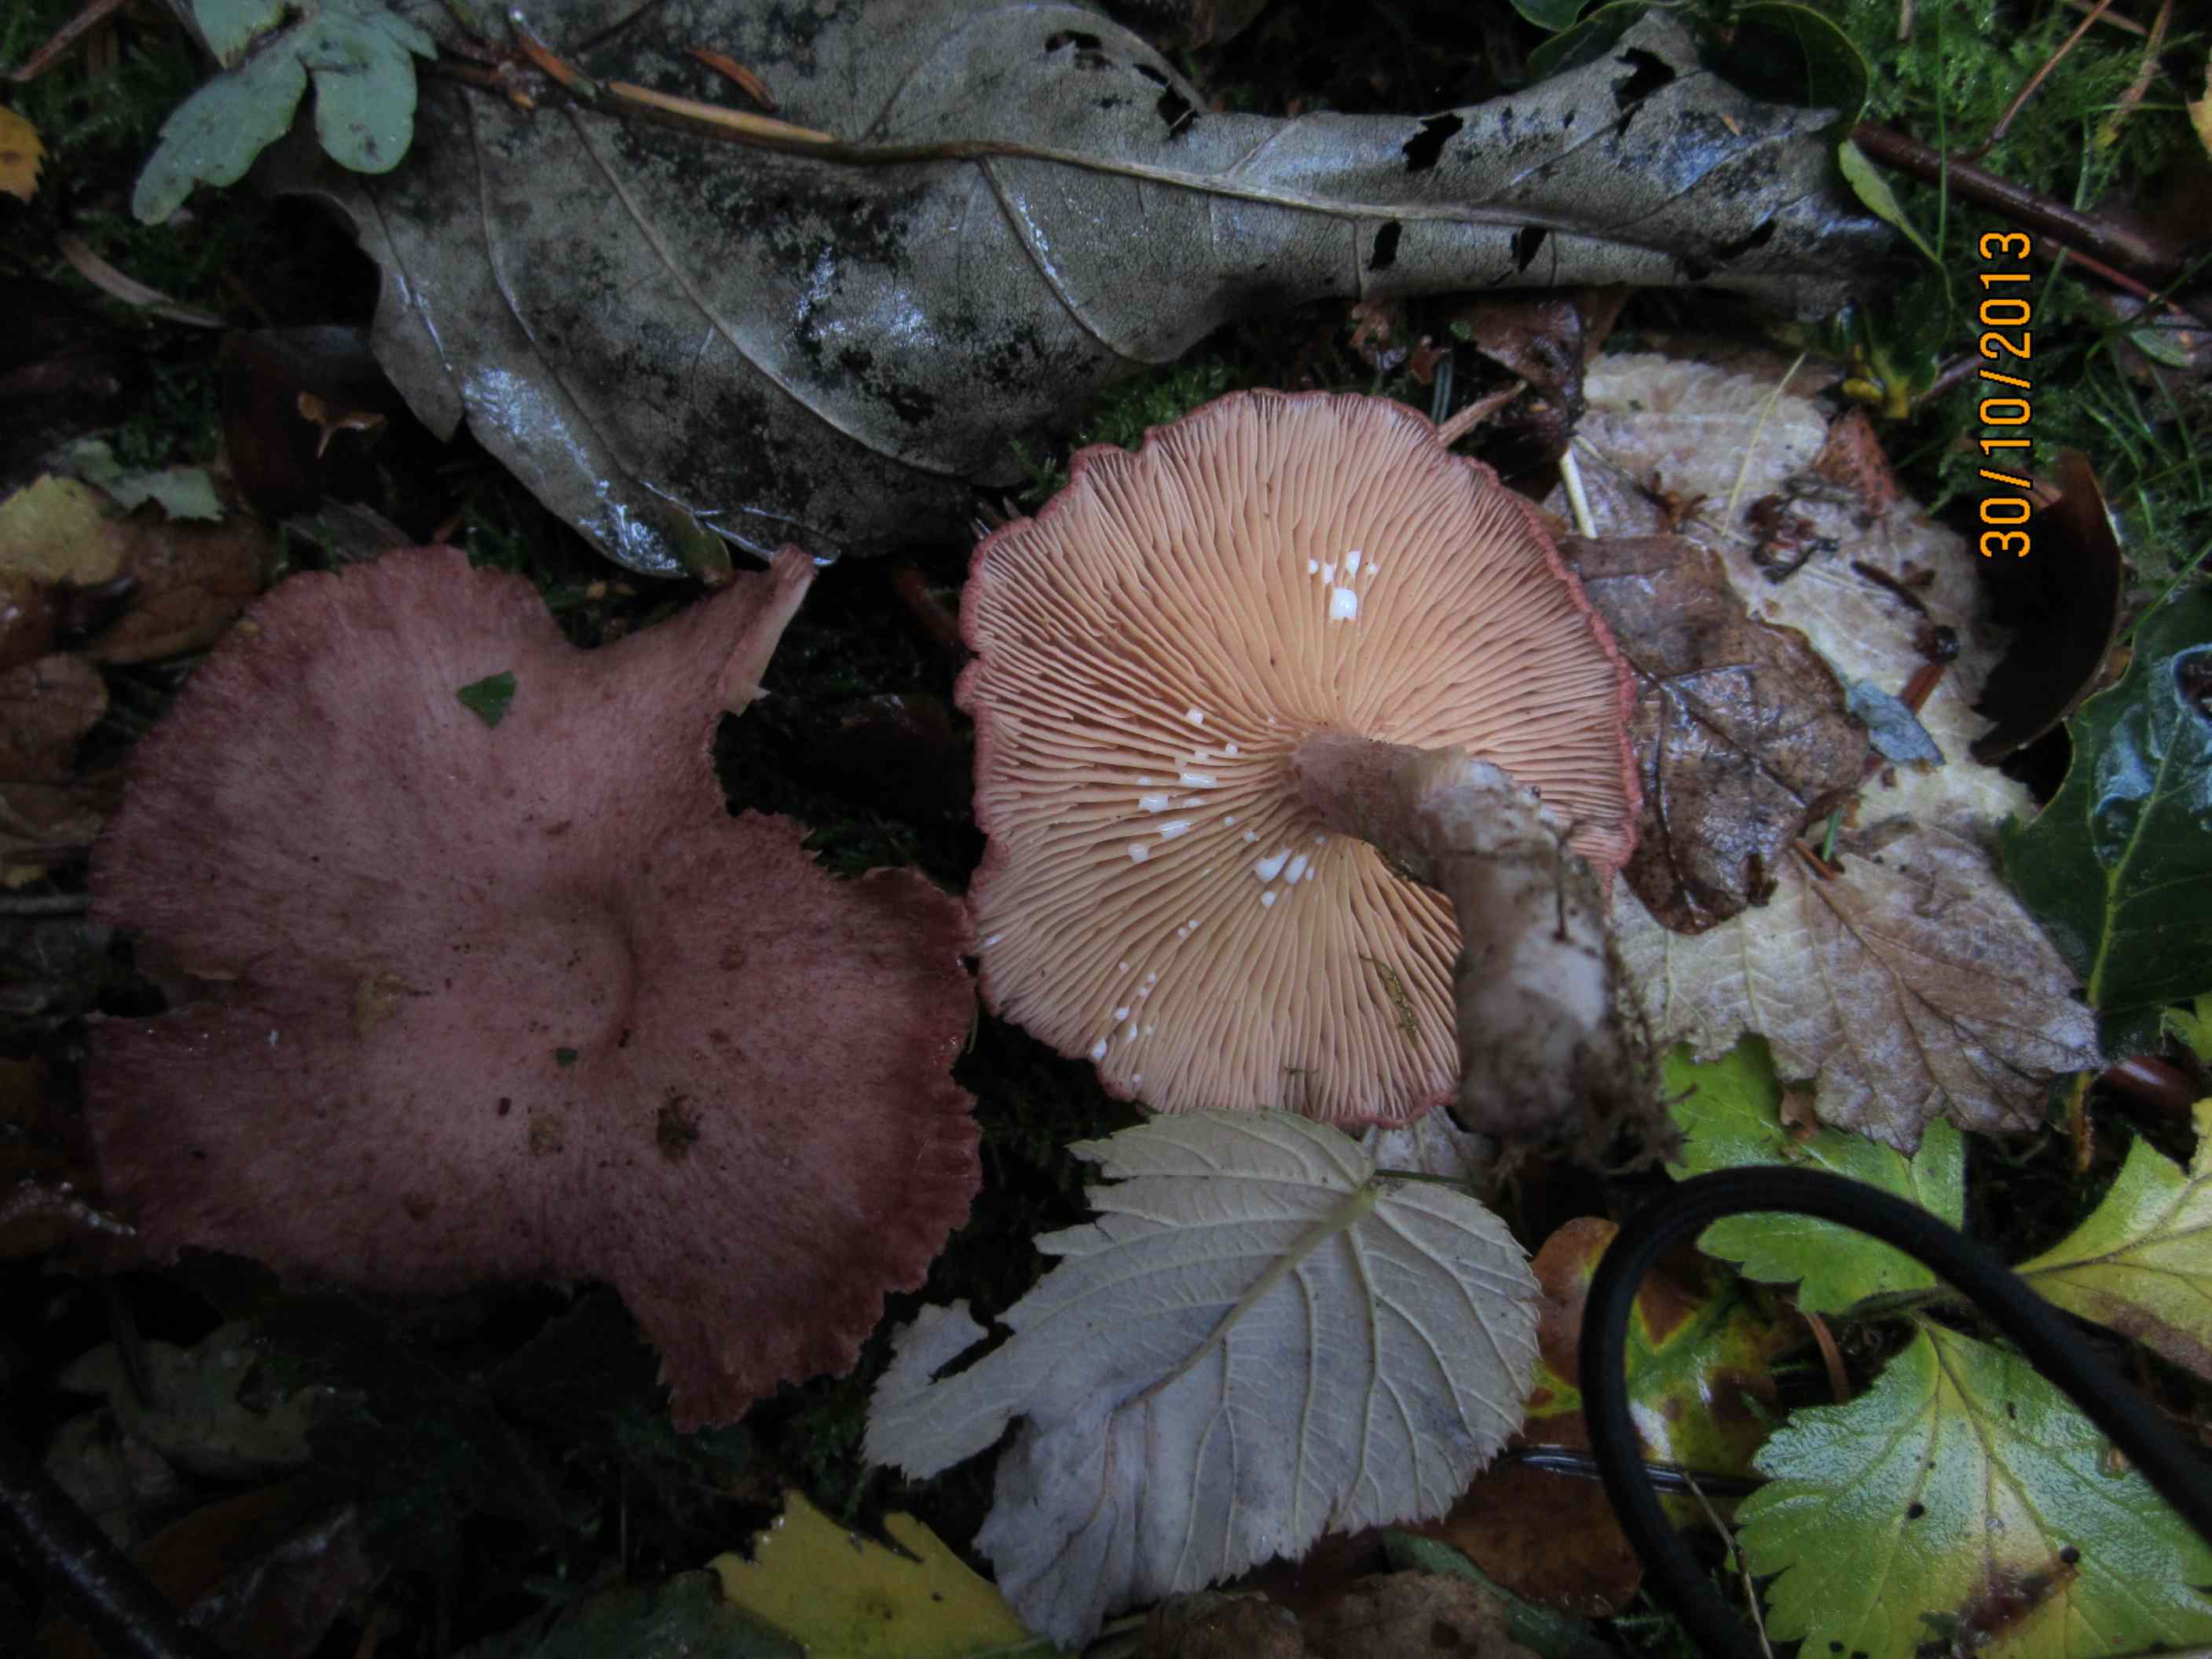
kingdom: Fungi
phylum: Basidiomycota
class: Agaricomycetes
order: Russulales
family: Russulaceae
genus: Lactarius
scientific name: Lactarius spinosulus
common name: småskællet mælkehat
